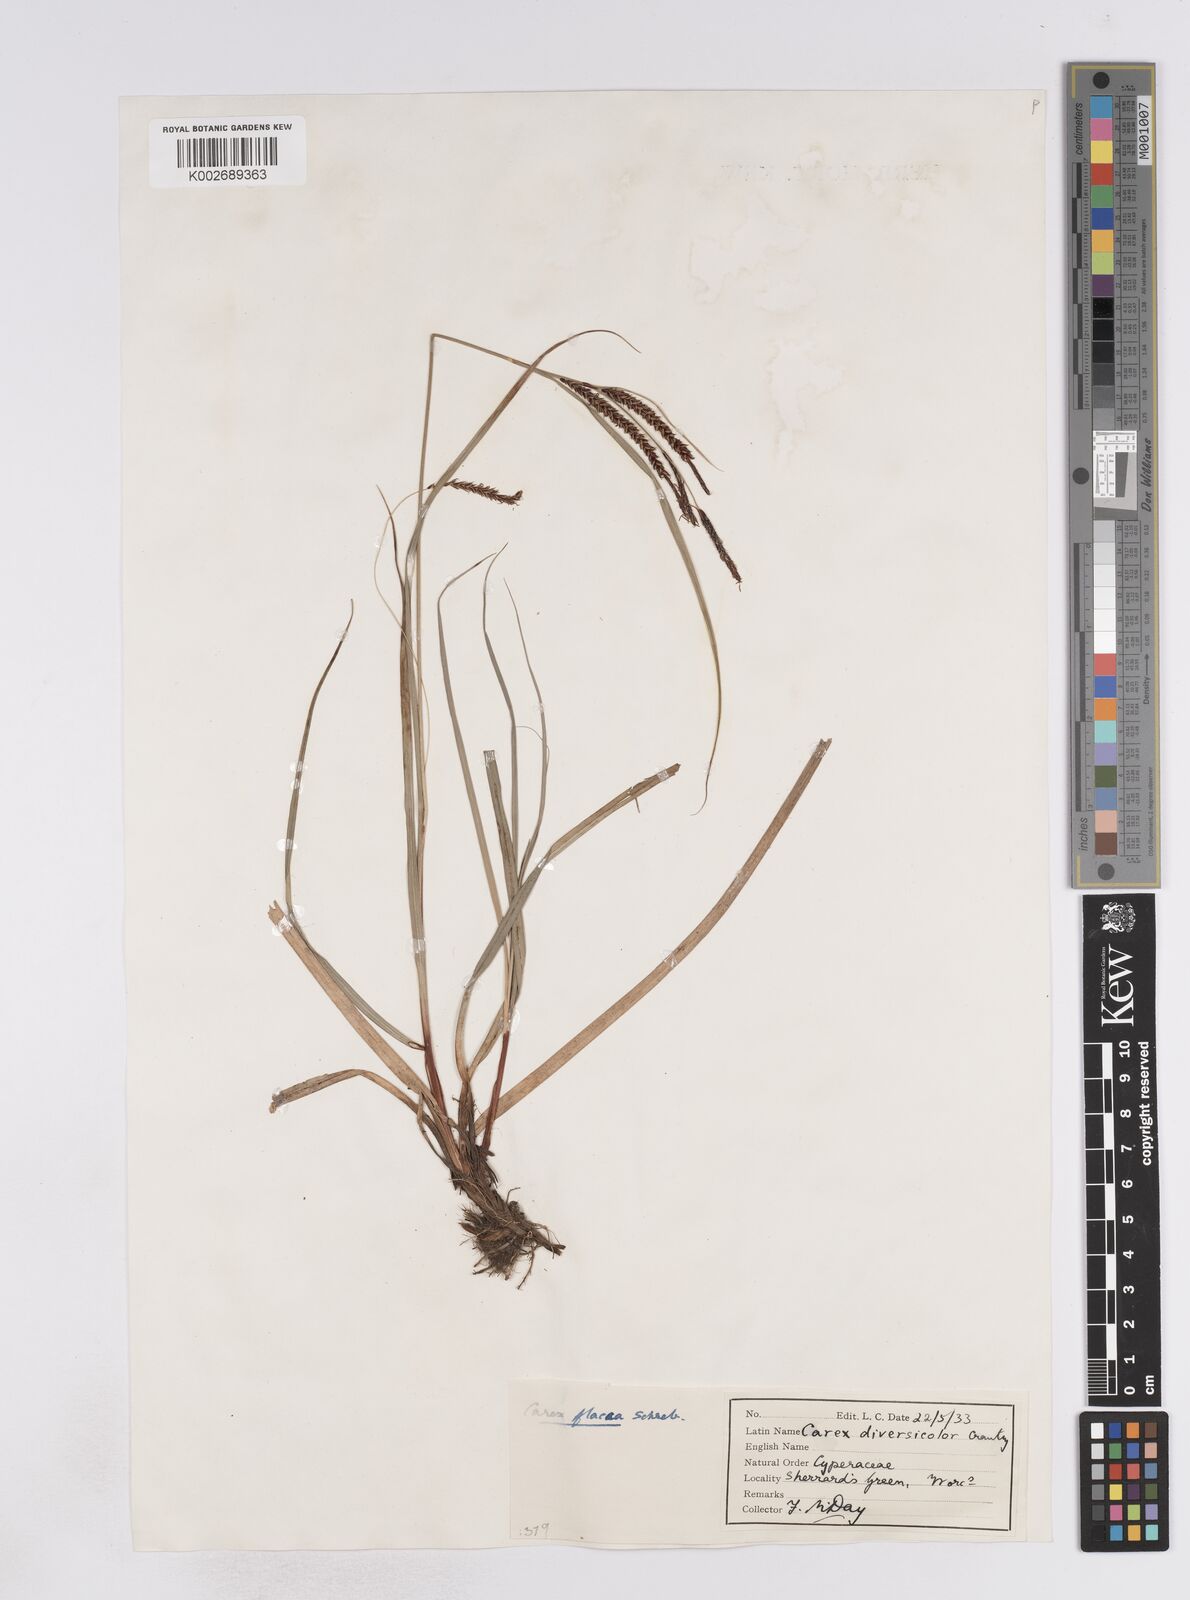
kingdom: Plantae
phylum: Tracheophyta
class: Liliopsida
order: Poales
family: Cyperaceae
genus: Carex
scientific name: Carex flacca
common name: Glaucous sedge
